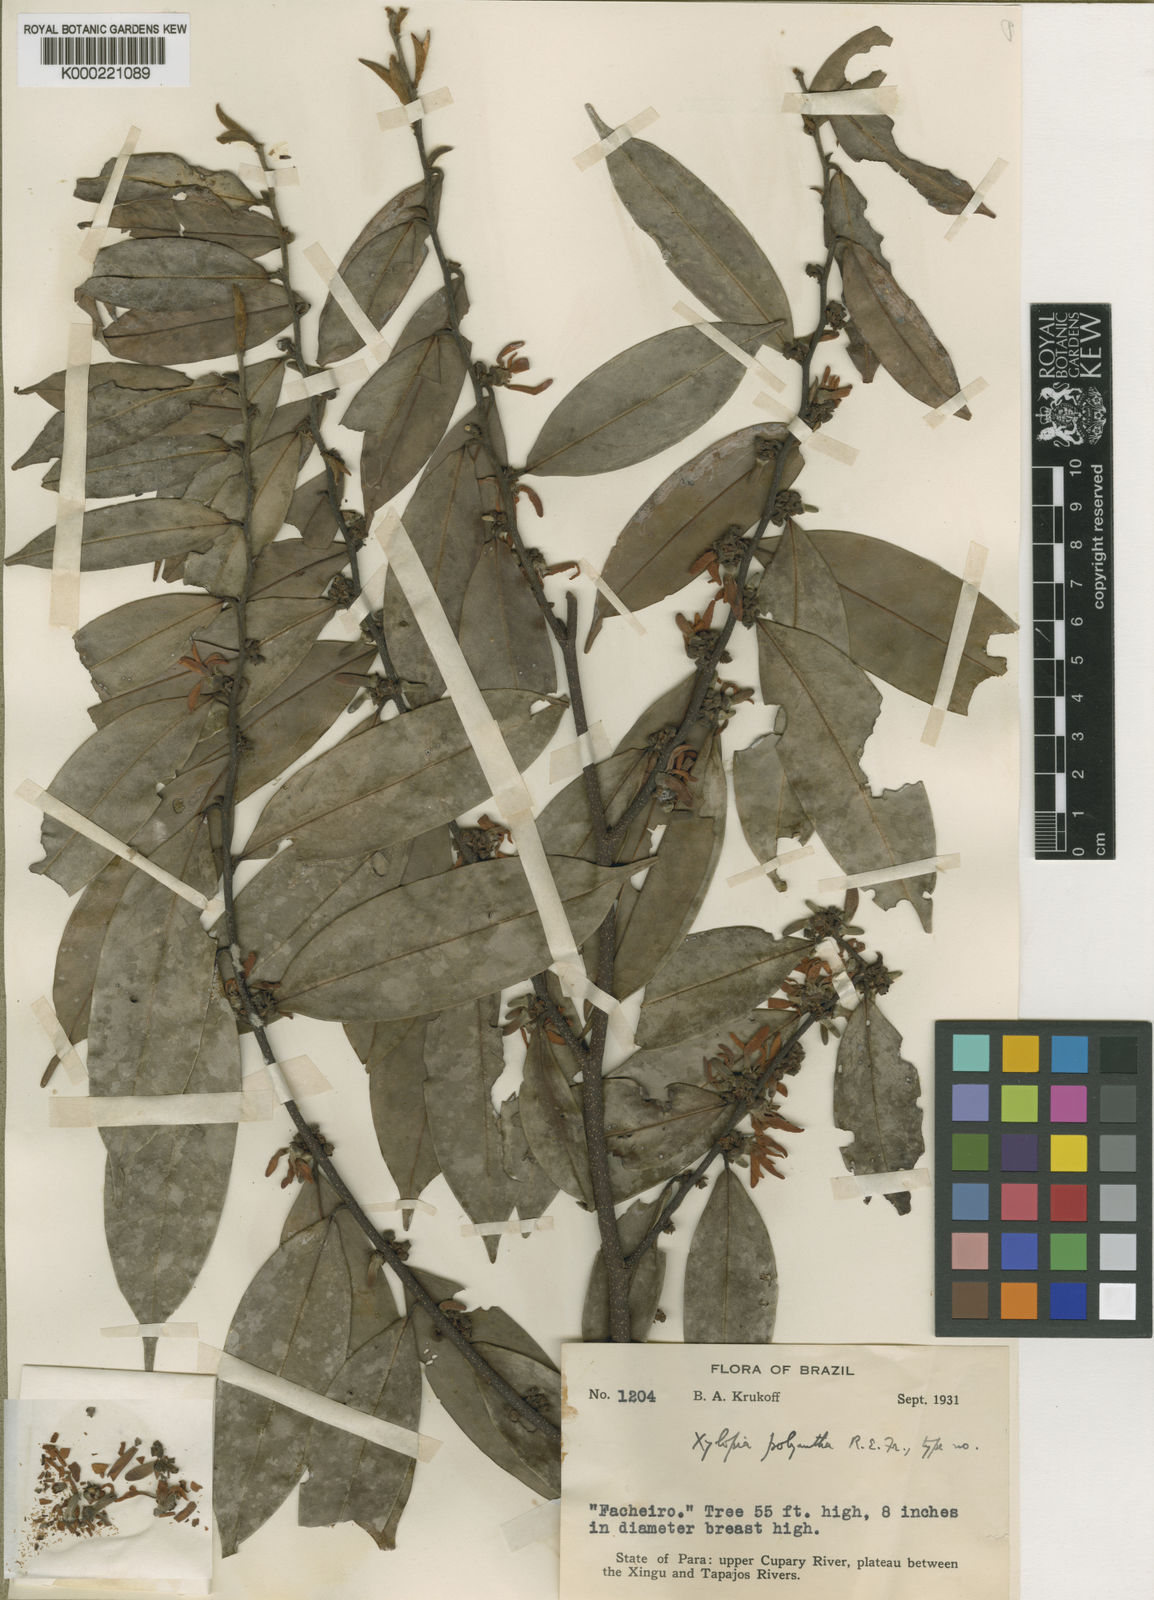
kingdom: Plantae
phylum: Tracheophyta
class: Magnoliopsida
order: Magnoliales
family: Annonaceae
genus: Xylopia
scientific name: Xylopia polyantha
